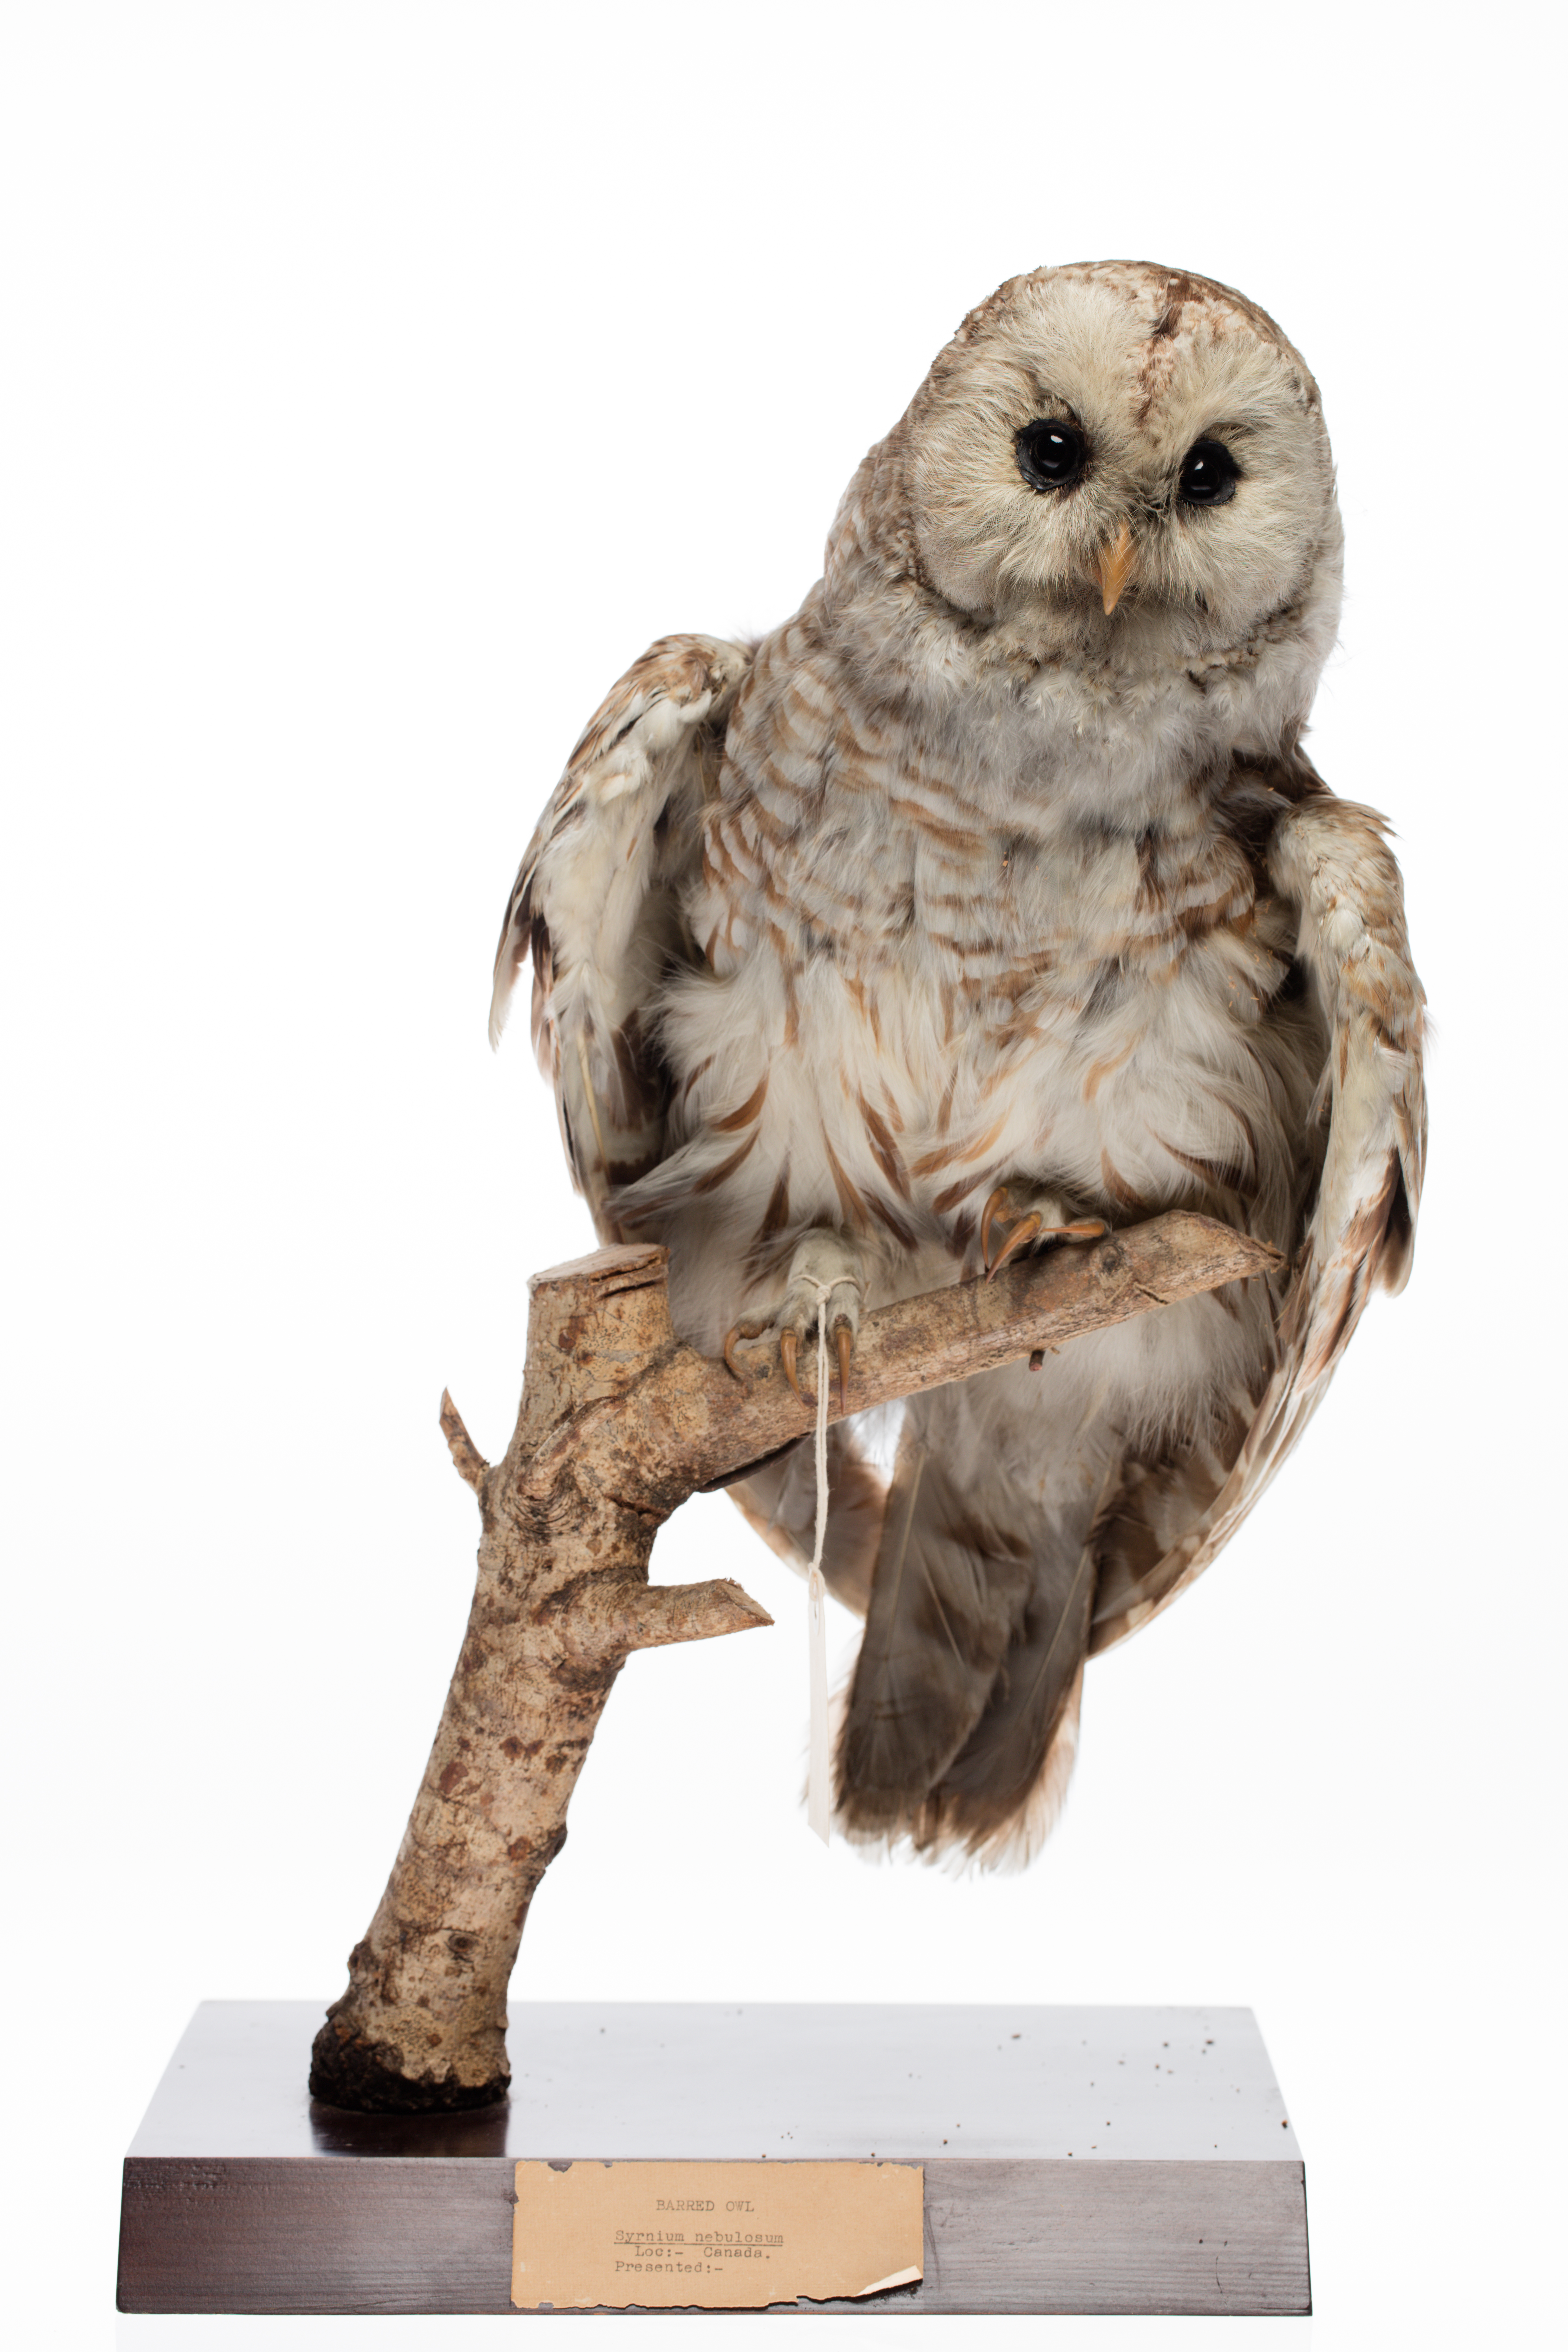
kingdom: Animalia
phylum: Chordata
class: Aves
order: Strigiformes
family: Strigidae
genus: Strix
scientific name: Strix varia
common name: Barred owl
